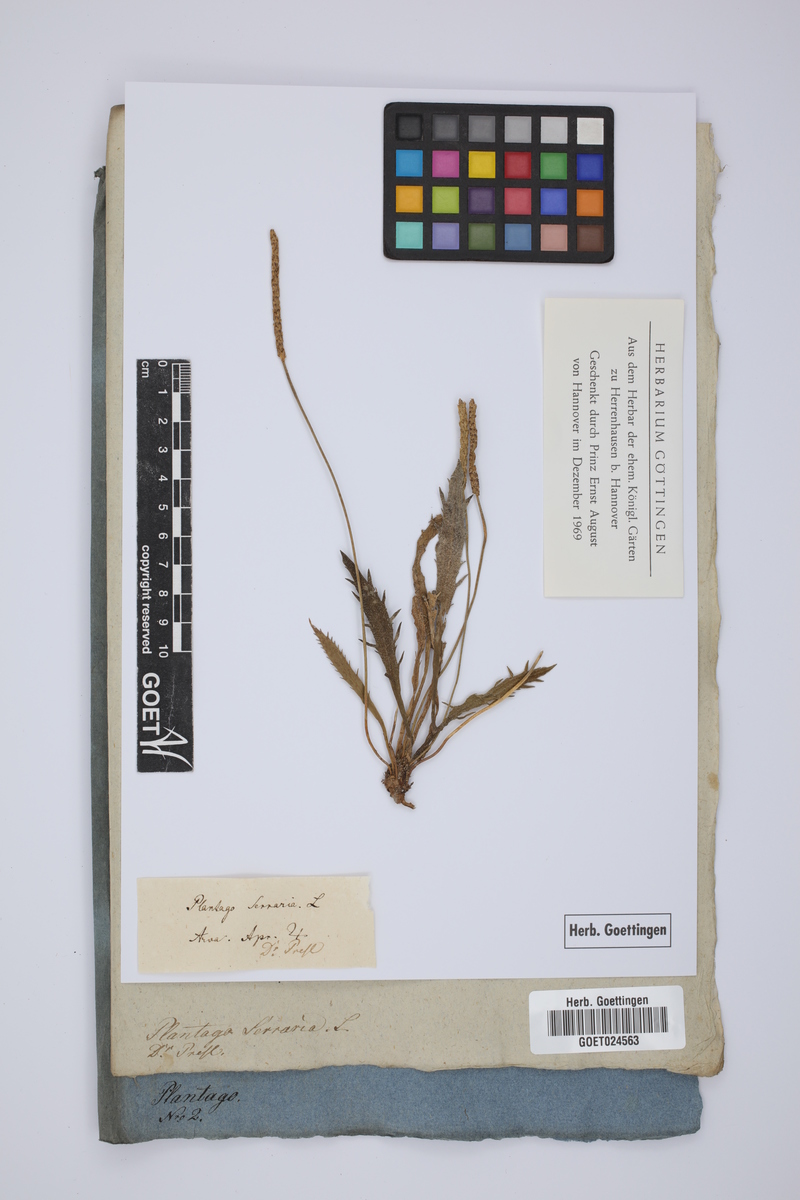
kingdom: Plantae
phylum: Tracheophyta
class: Magnoliopsida
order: Lamiales
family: Plantaginaceae
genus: Plantago
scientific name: Plantago serraria
